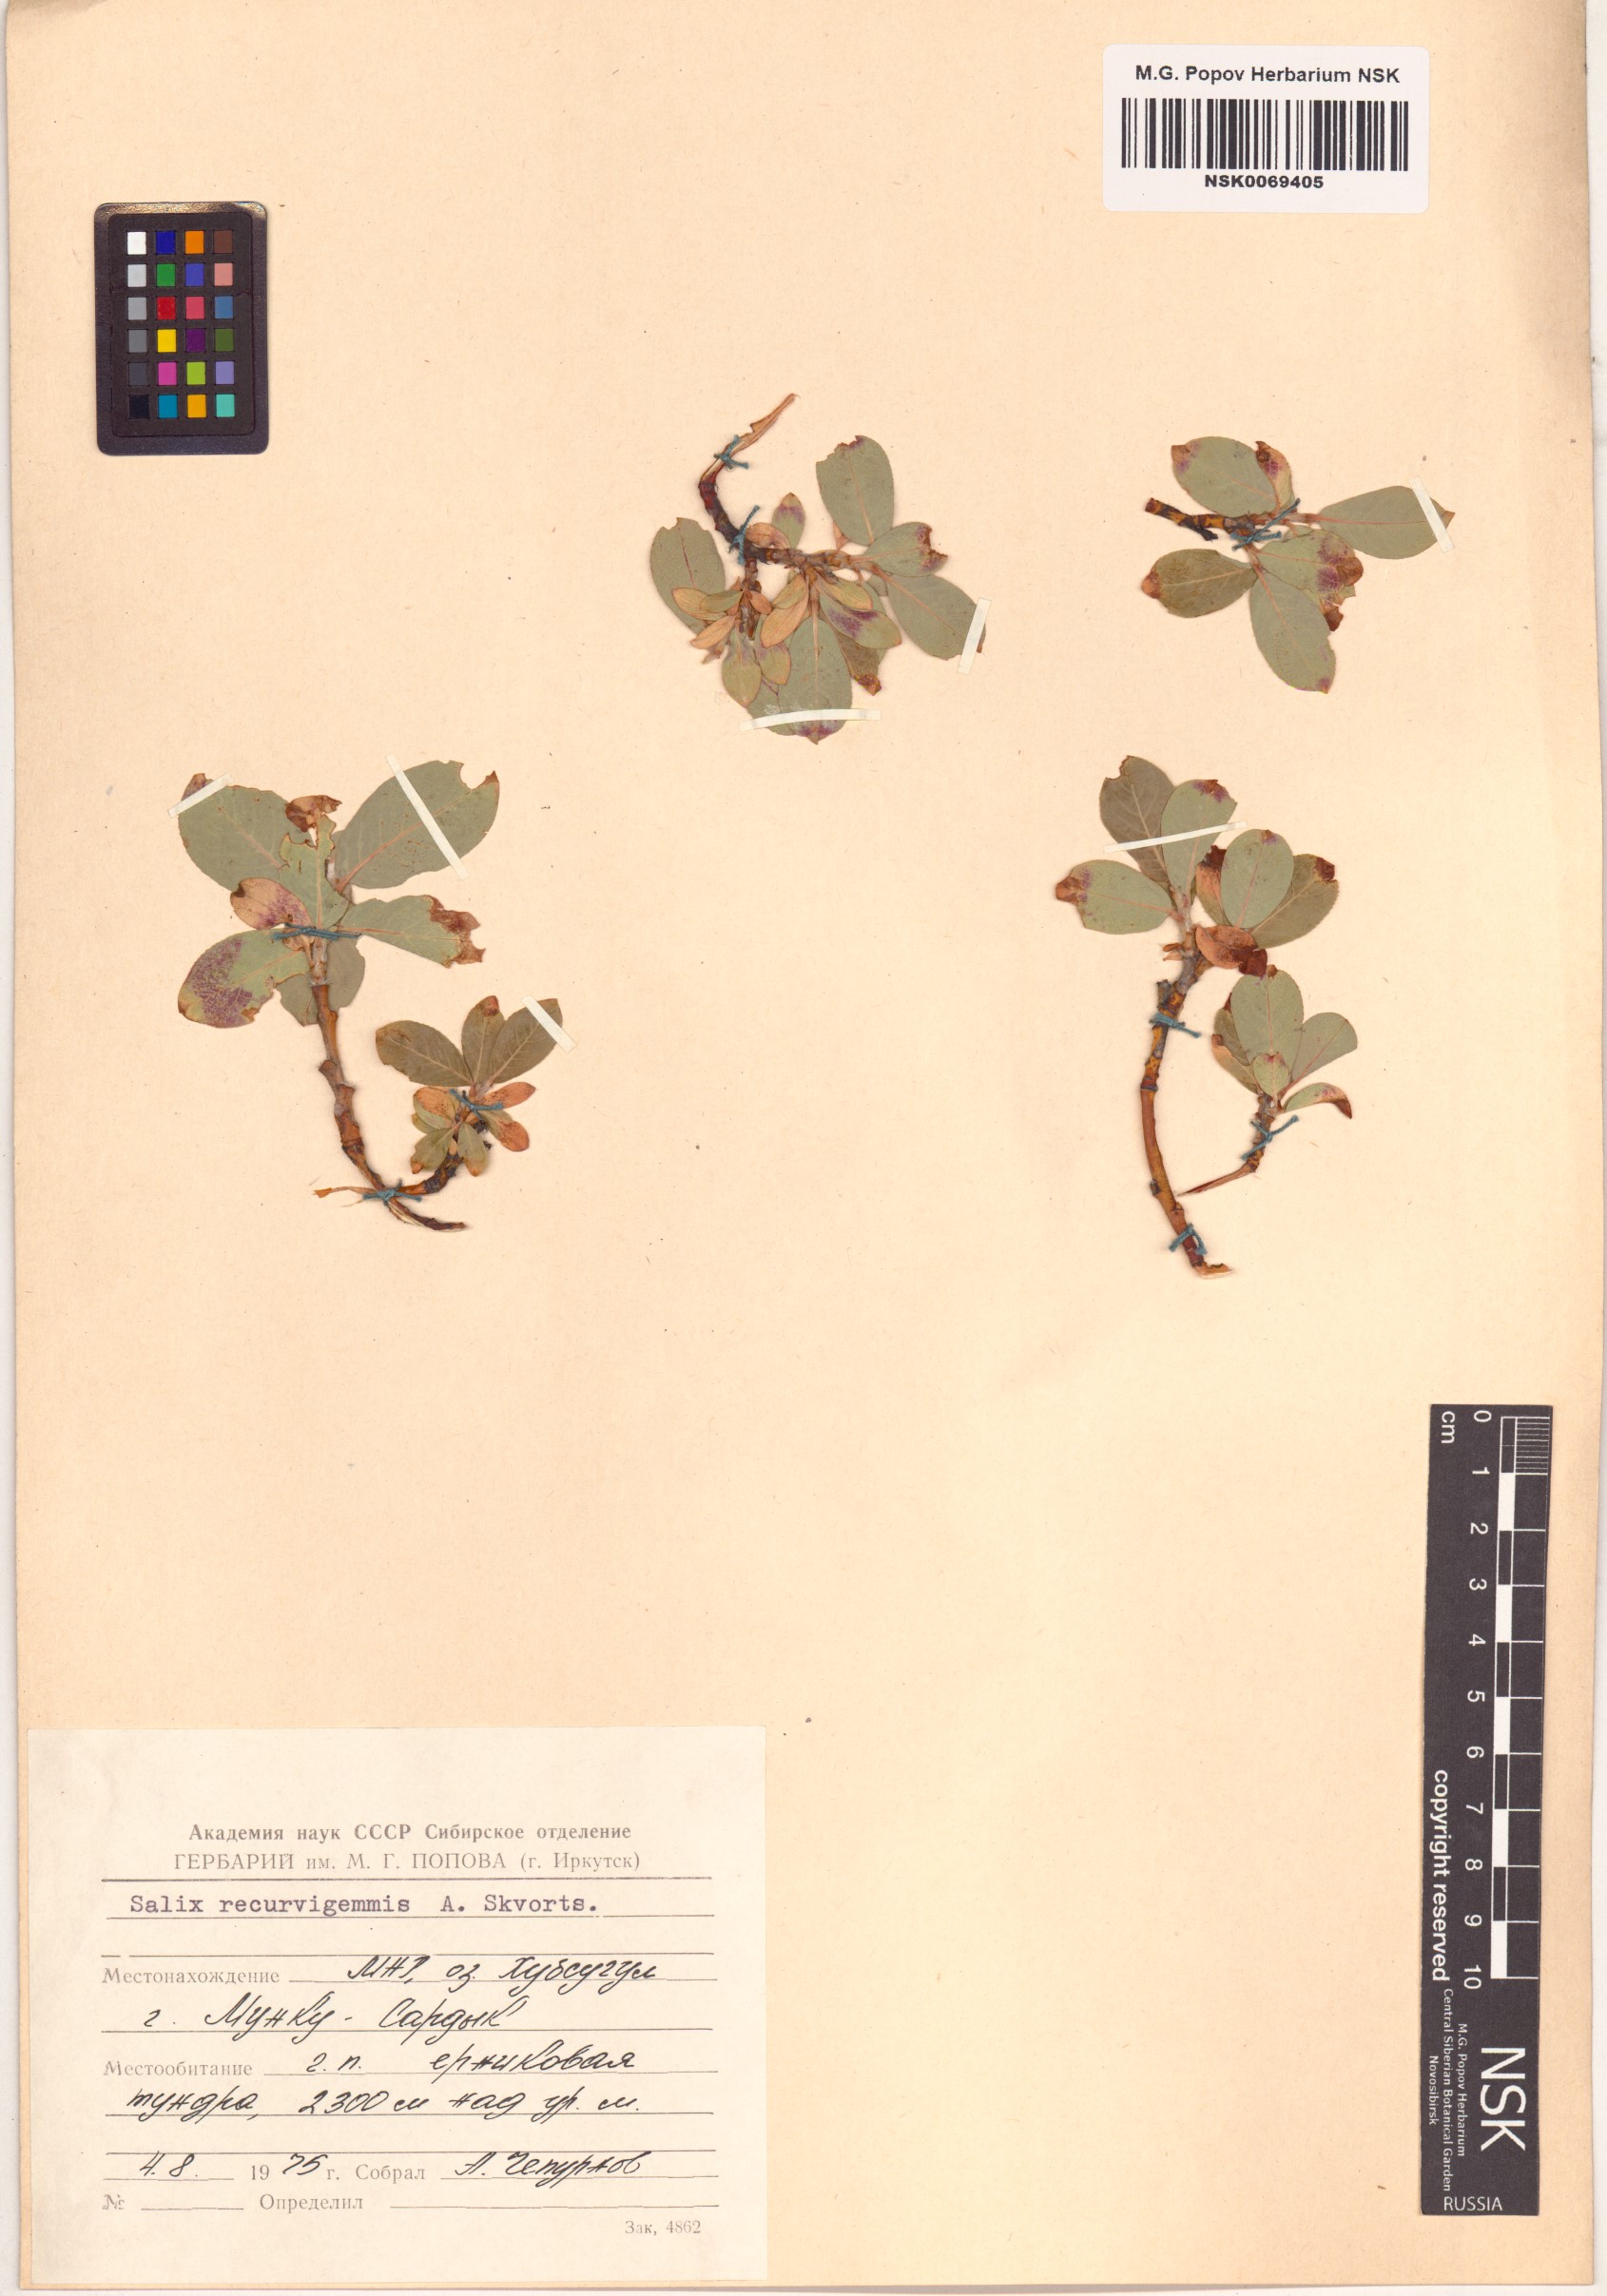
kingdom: Plantae
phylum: Tracheophyta
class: Magnoliopsida
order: Malpighiales
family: Salicaceae
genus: Salix
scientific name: Salix recurvigemmata
